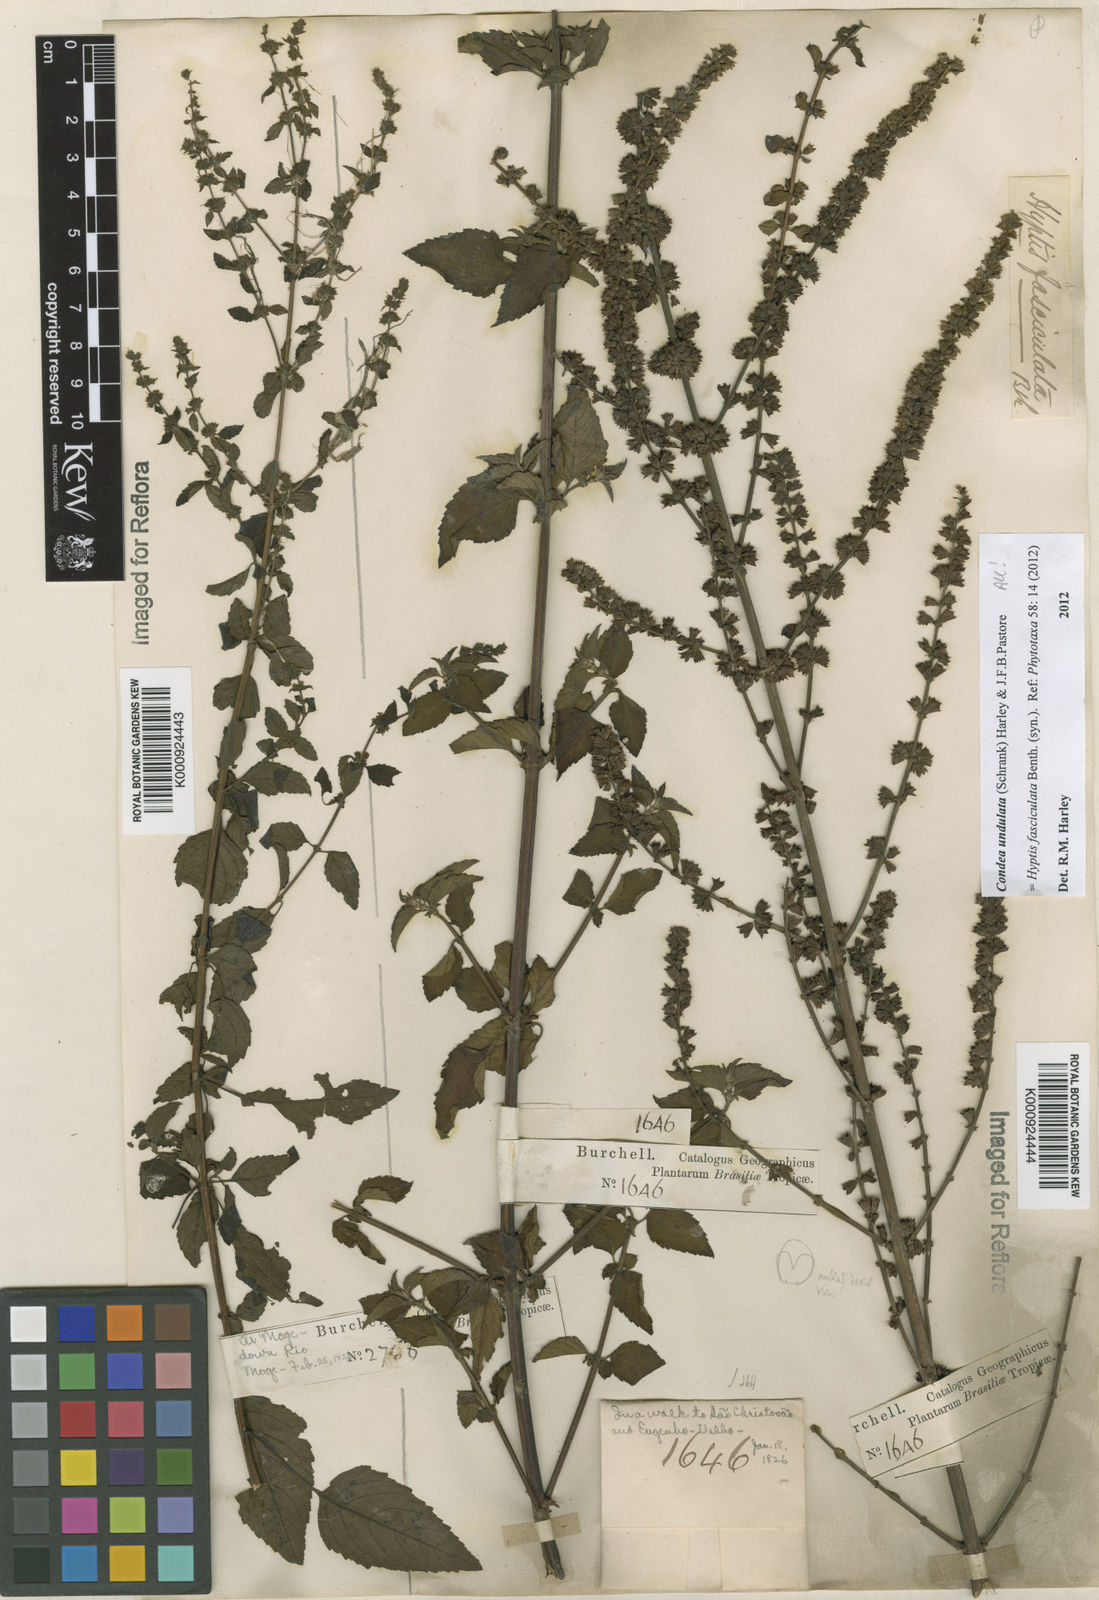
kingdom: Plantae
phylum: Tracheophyta
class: Magnoliopsida
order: Lamiales
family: Lamiaceae
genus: Condea
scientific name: Condea undulata
